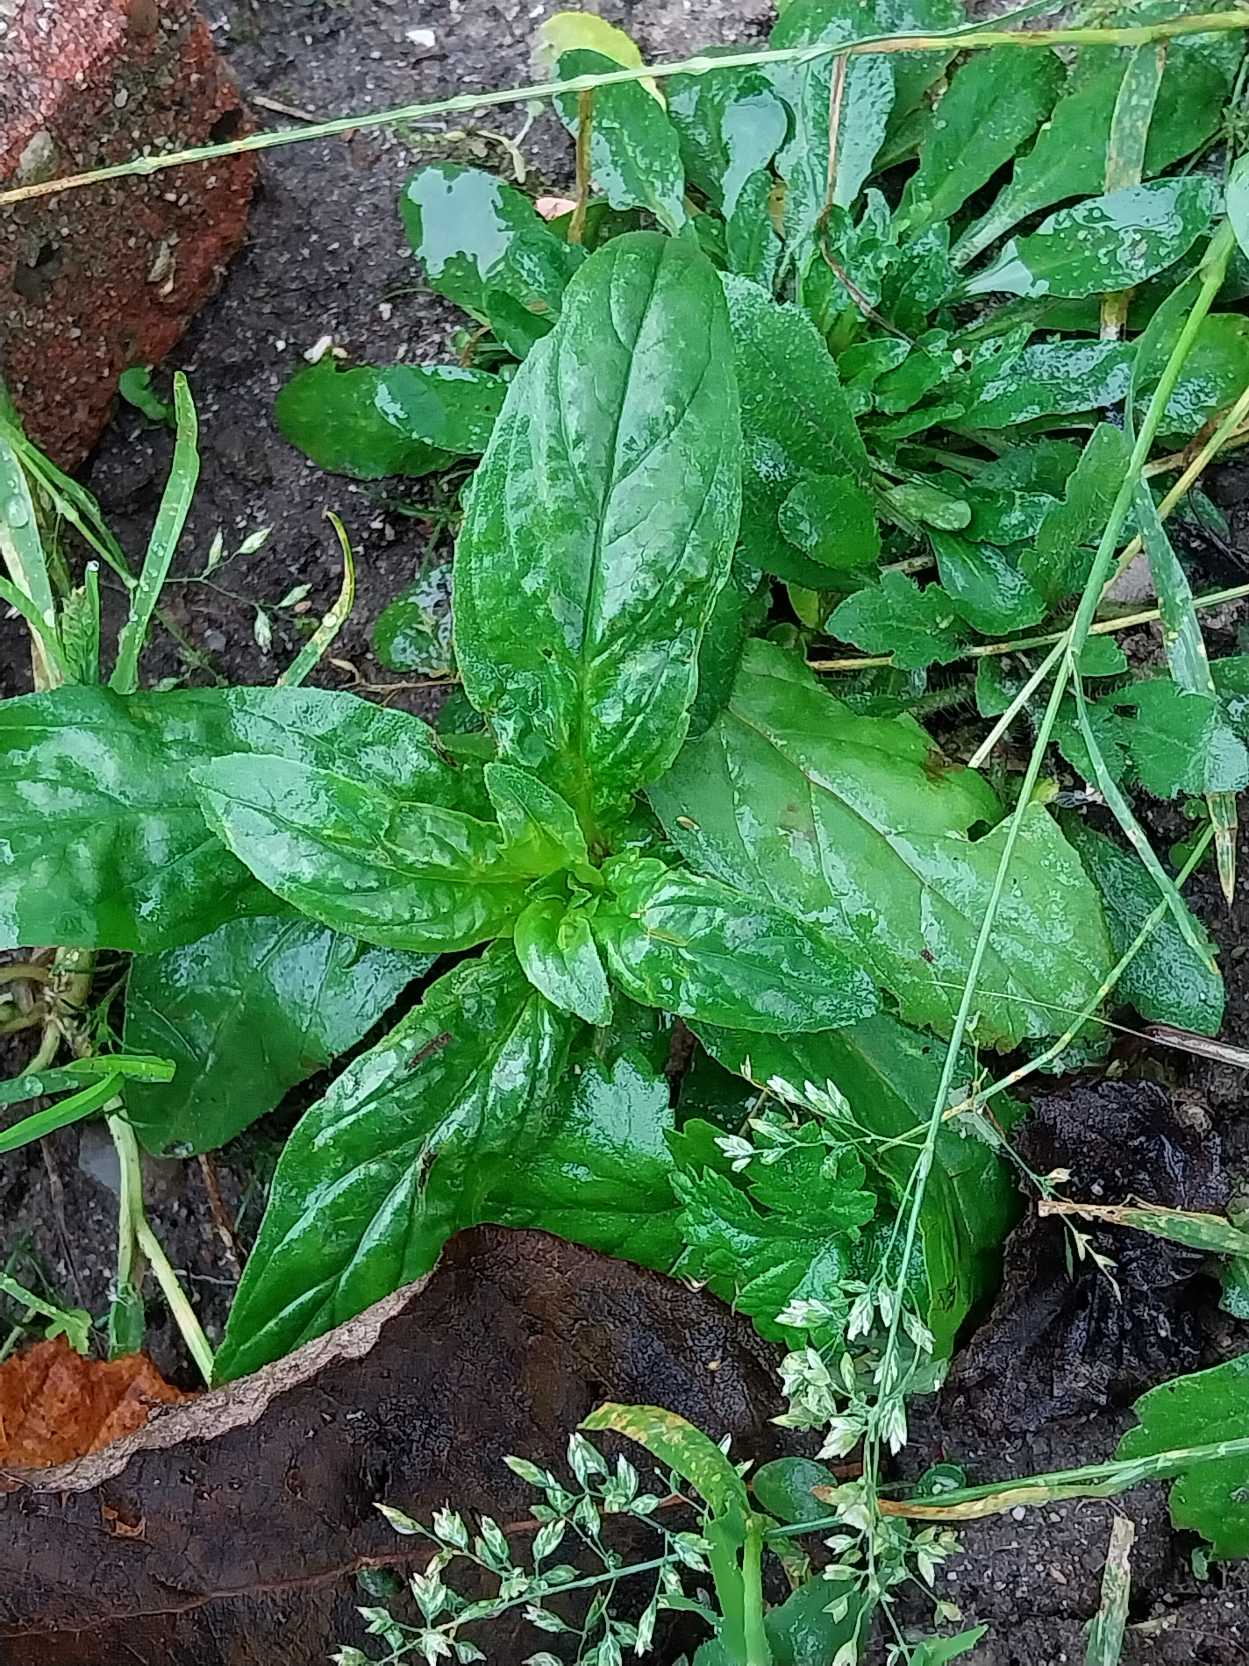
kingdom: Plantae
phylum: Tracheophyta
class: Magnoliopsida
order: Myrtales
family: Onagraceae
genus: Epilobium
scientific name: Epilobium hirsutum
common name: Lådden dueurt
